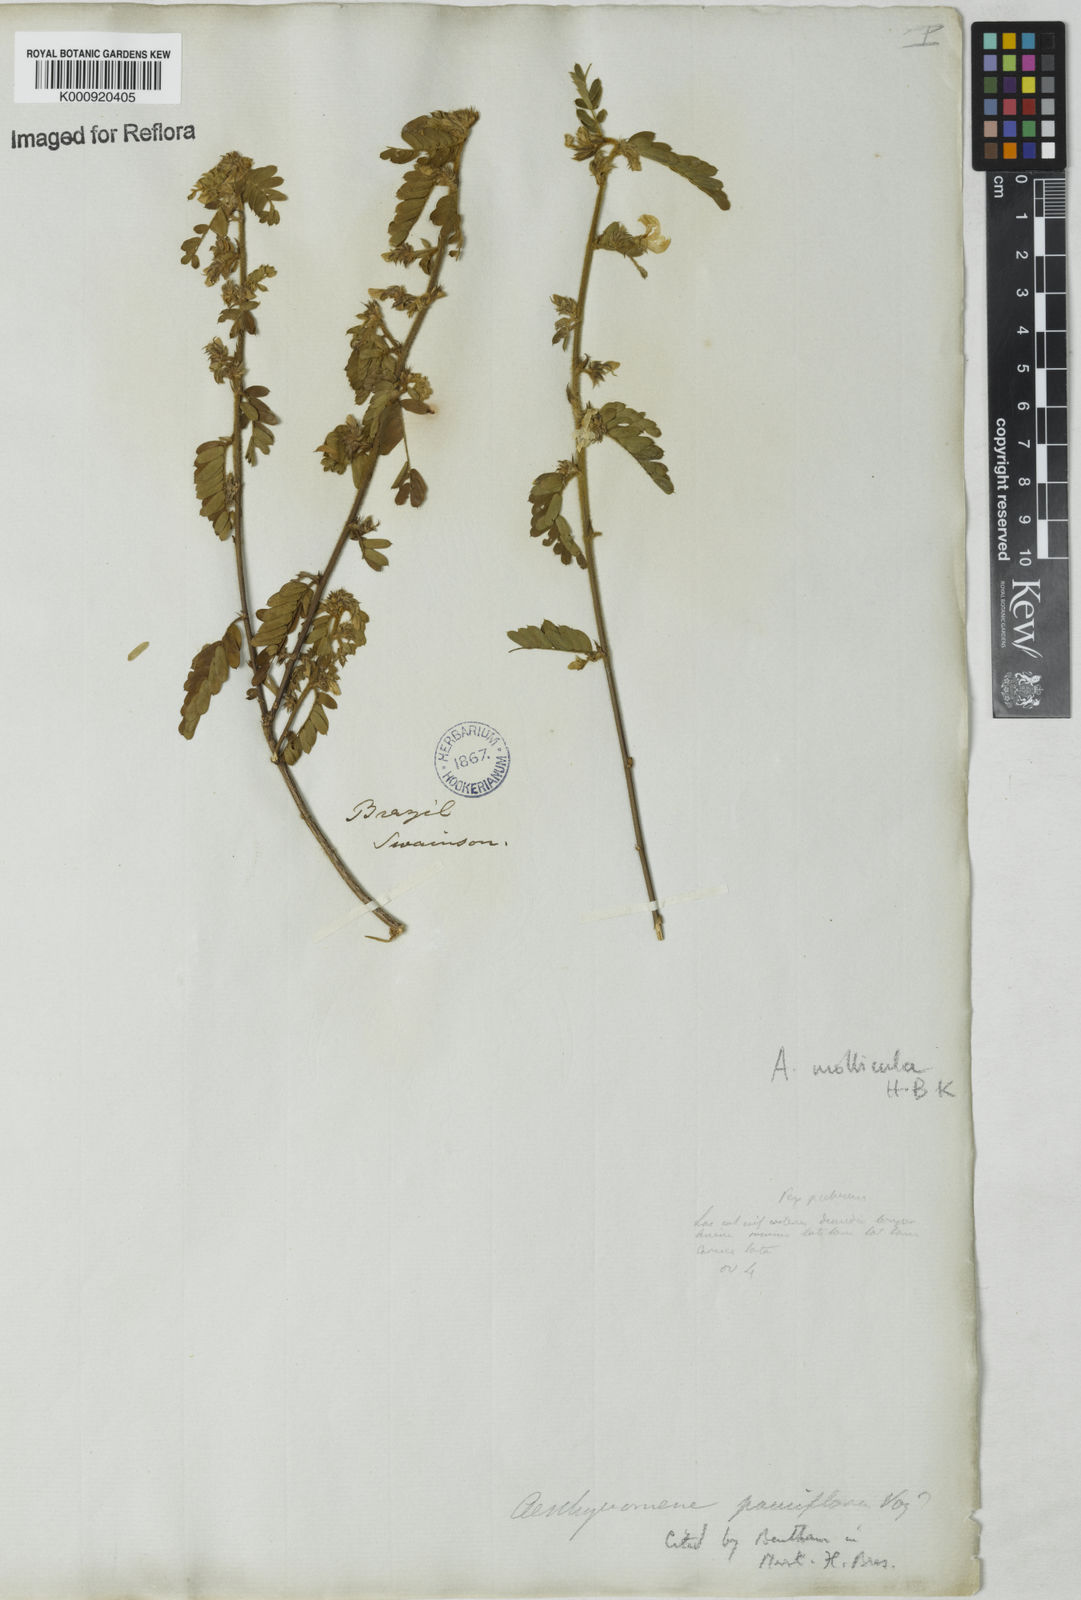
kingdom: Plantae
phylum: Tracheophyta
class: Magnoliopsida
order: Fabales
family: Fabaceae
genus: Ctenodon
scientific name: Ctenodon molliculus
